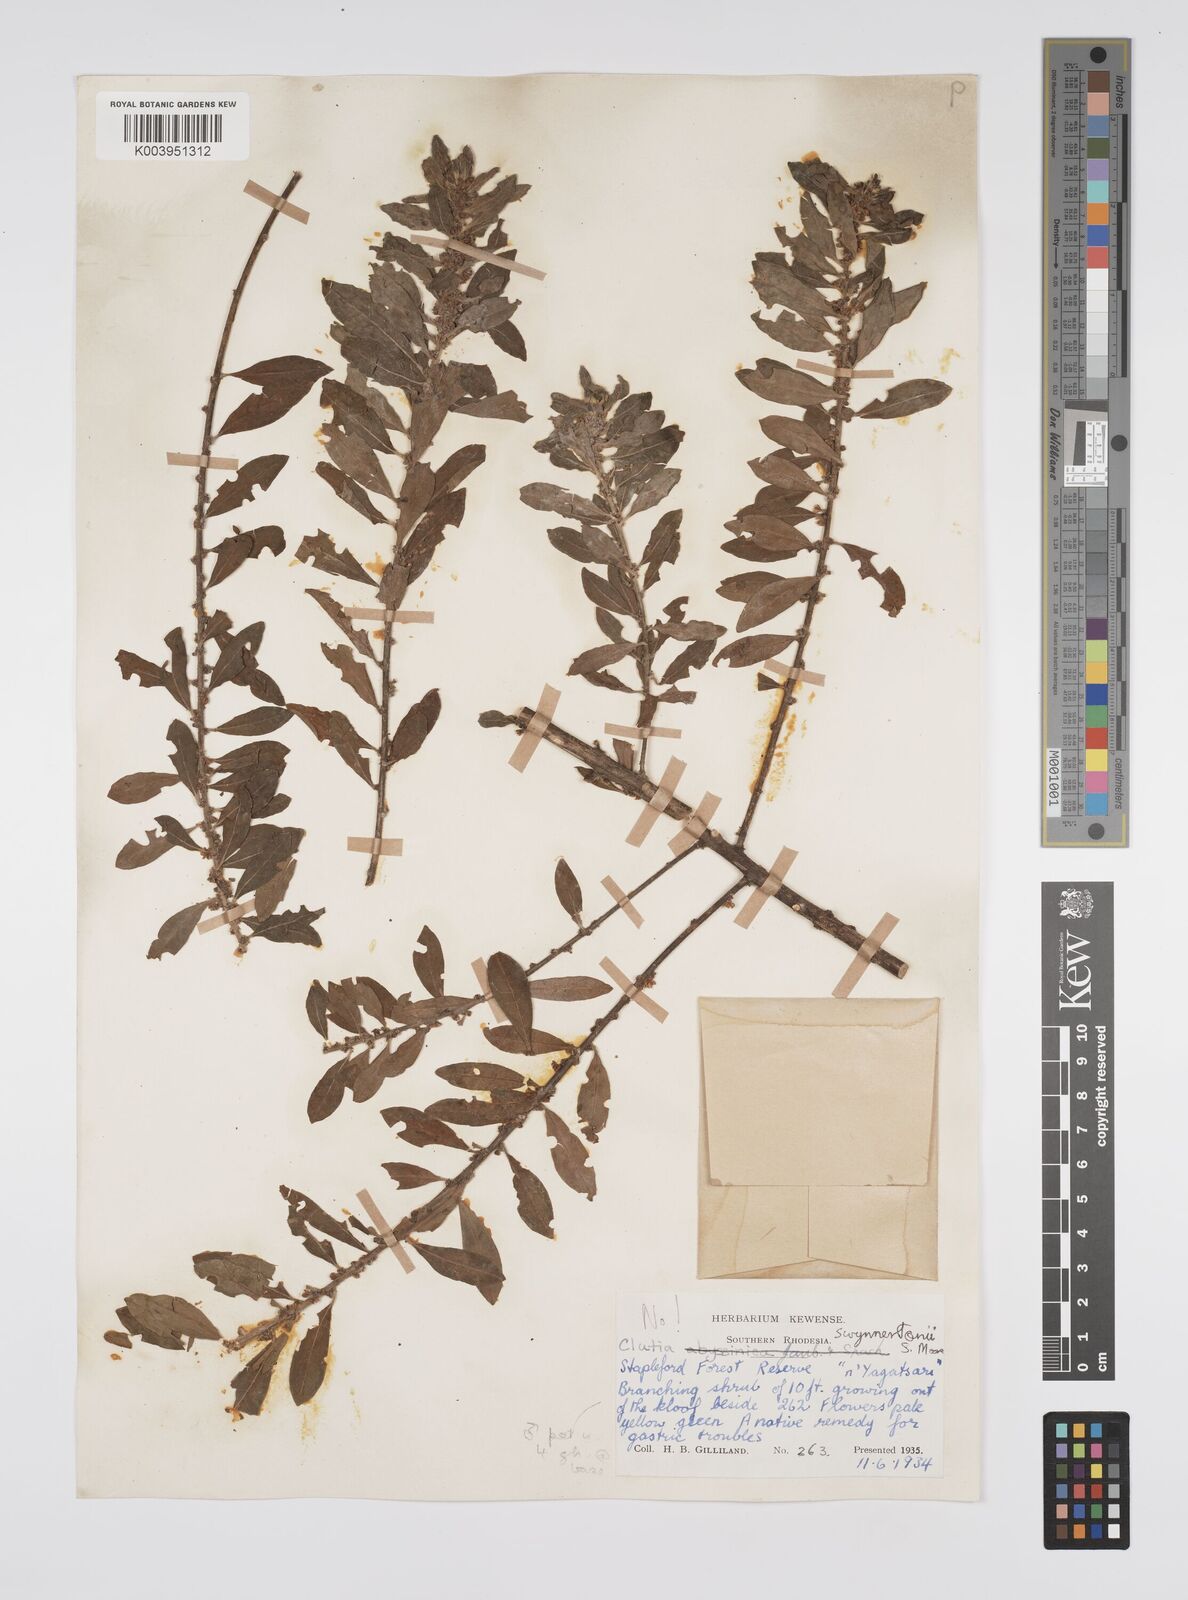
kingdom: Plantae
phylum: Tracheophyta
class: Magnoliopsida
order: Malpighiales
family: Peraceae
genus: Clutia
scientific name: Clutia swynnertonii
